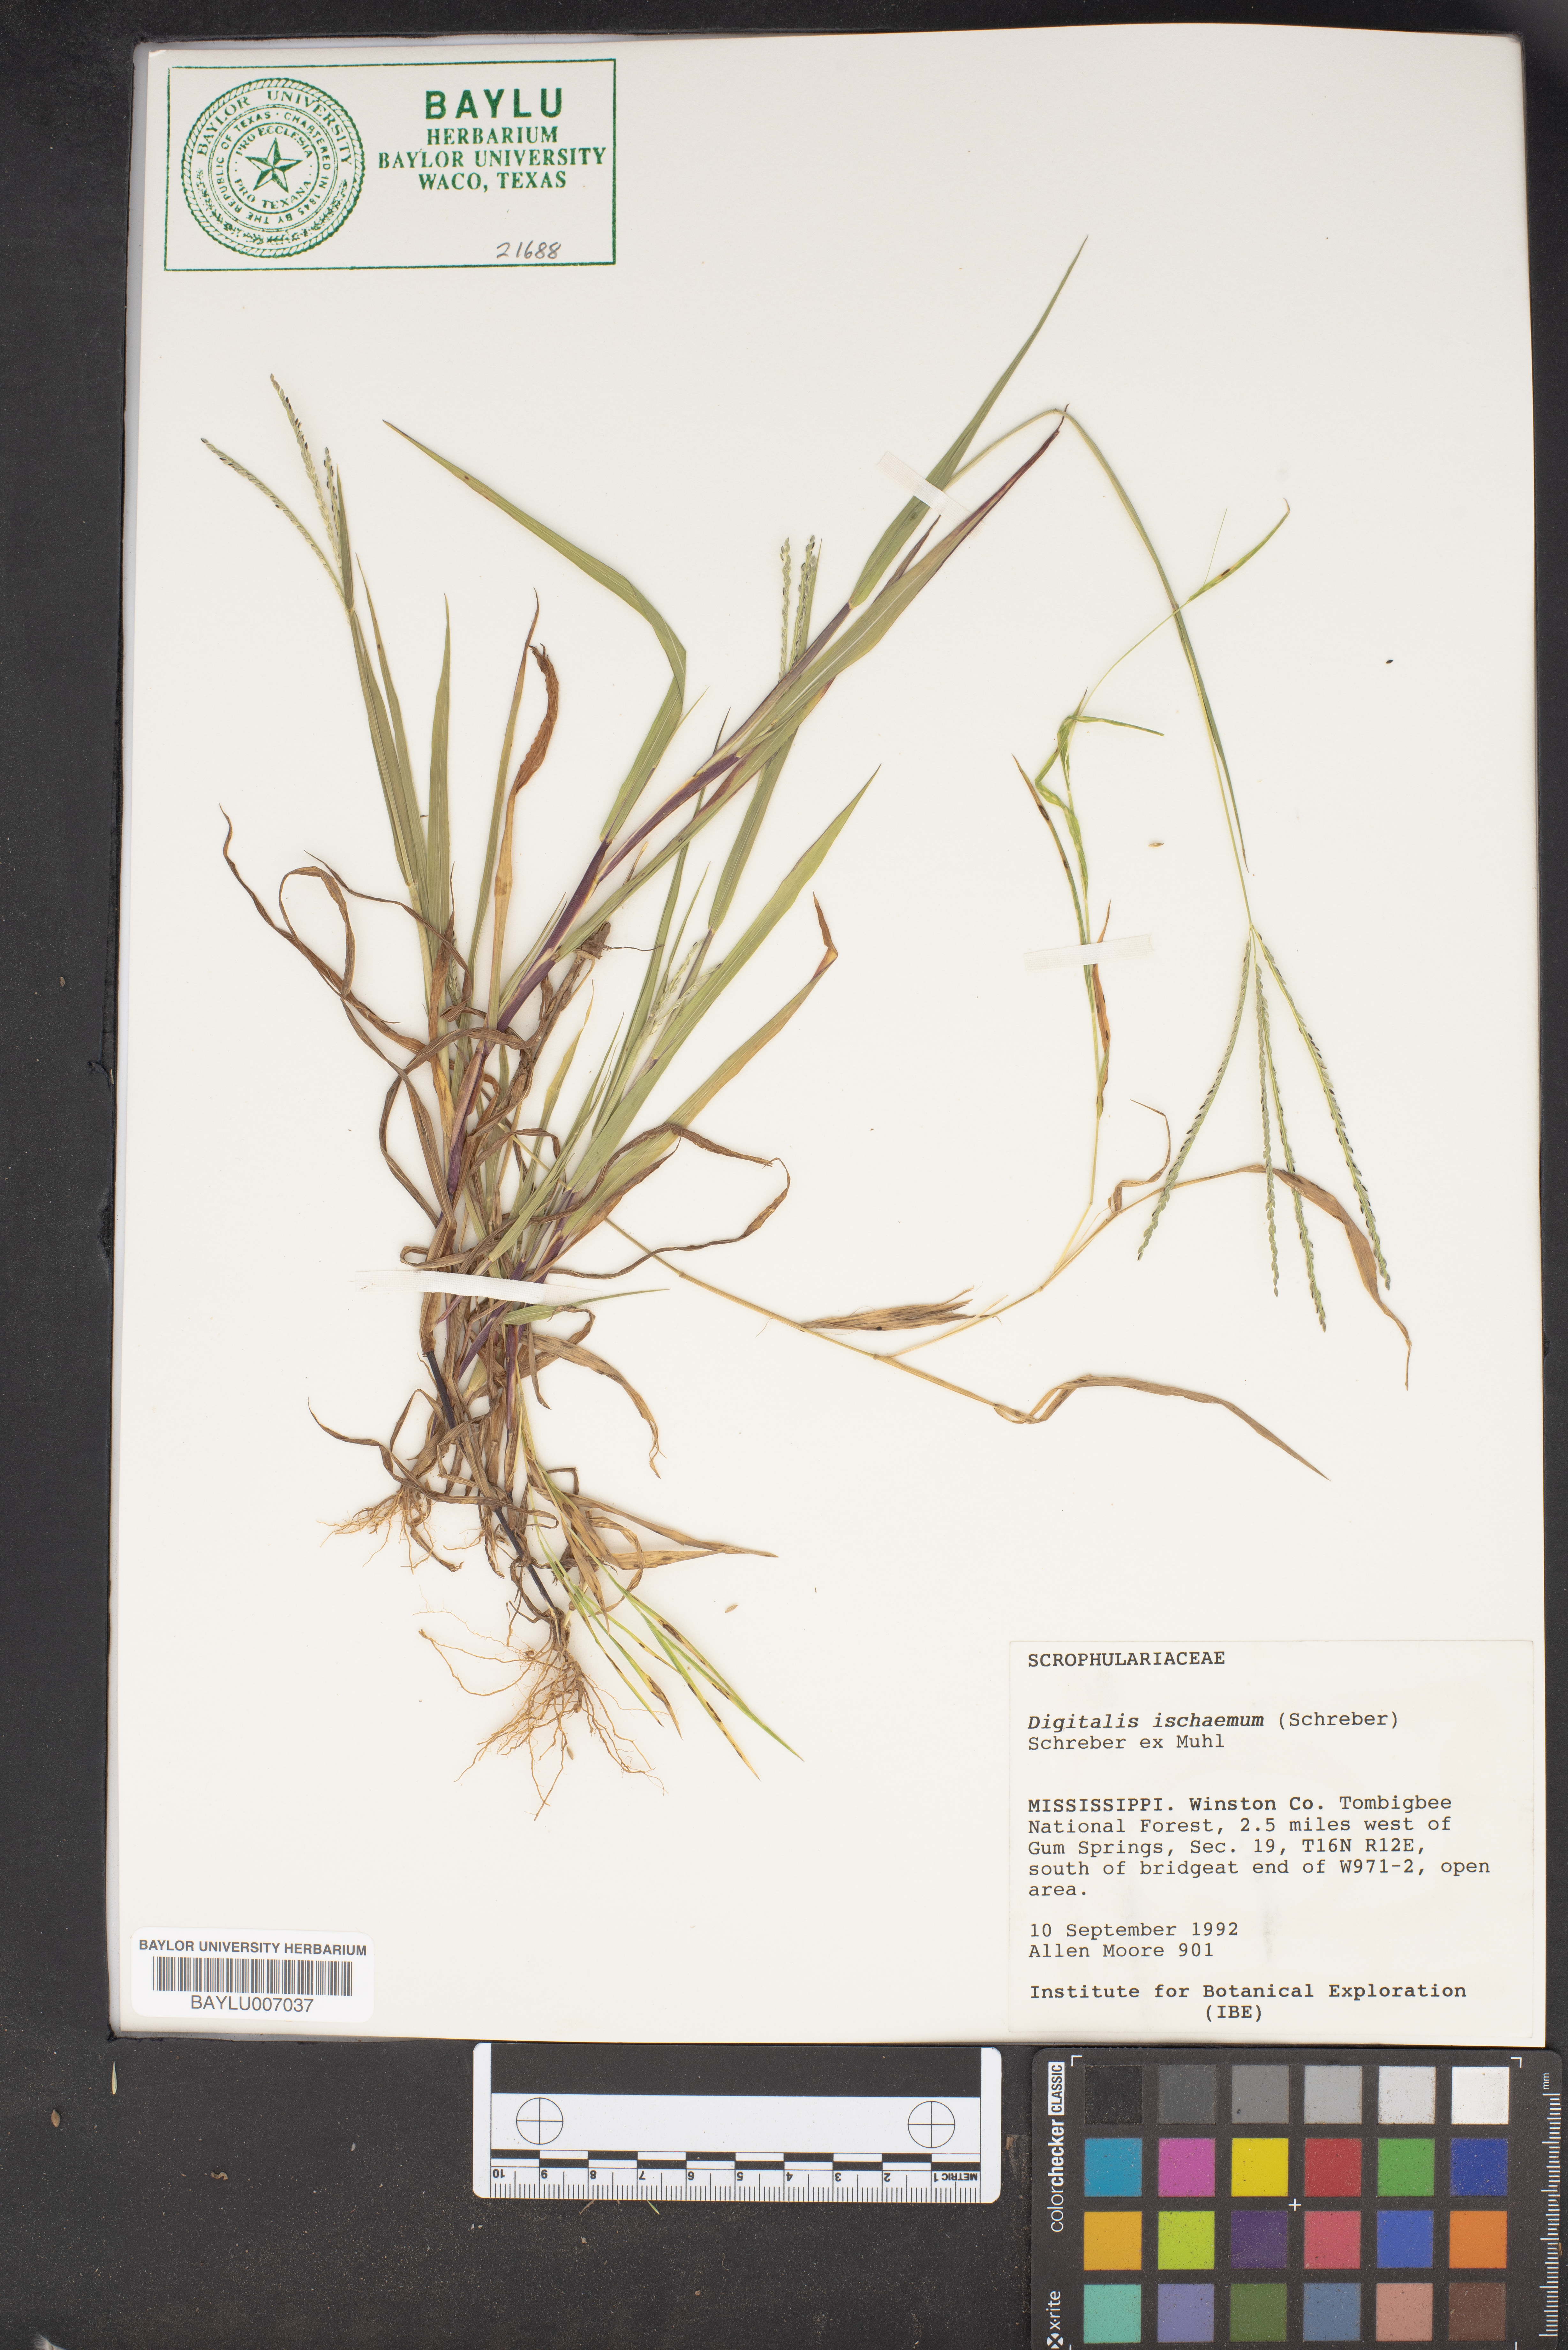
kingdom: Plantae
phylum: Tracheophyta
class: Magnoliopsida
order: Lamiales
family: Plantaginaceae
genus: Digitalis
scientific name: Digitalis
